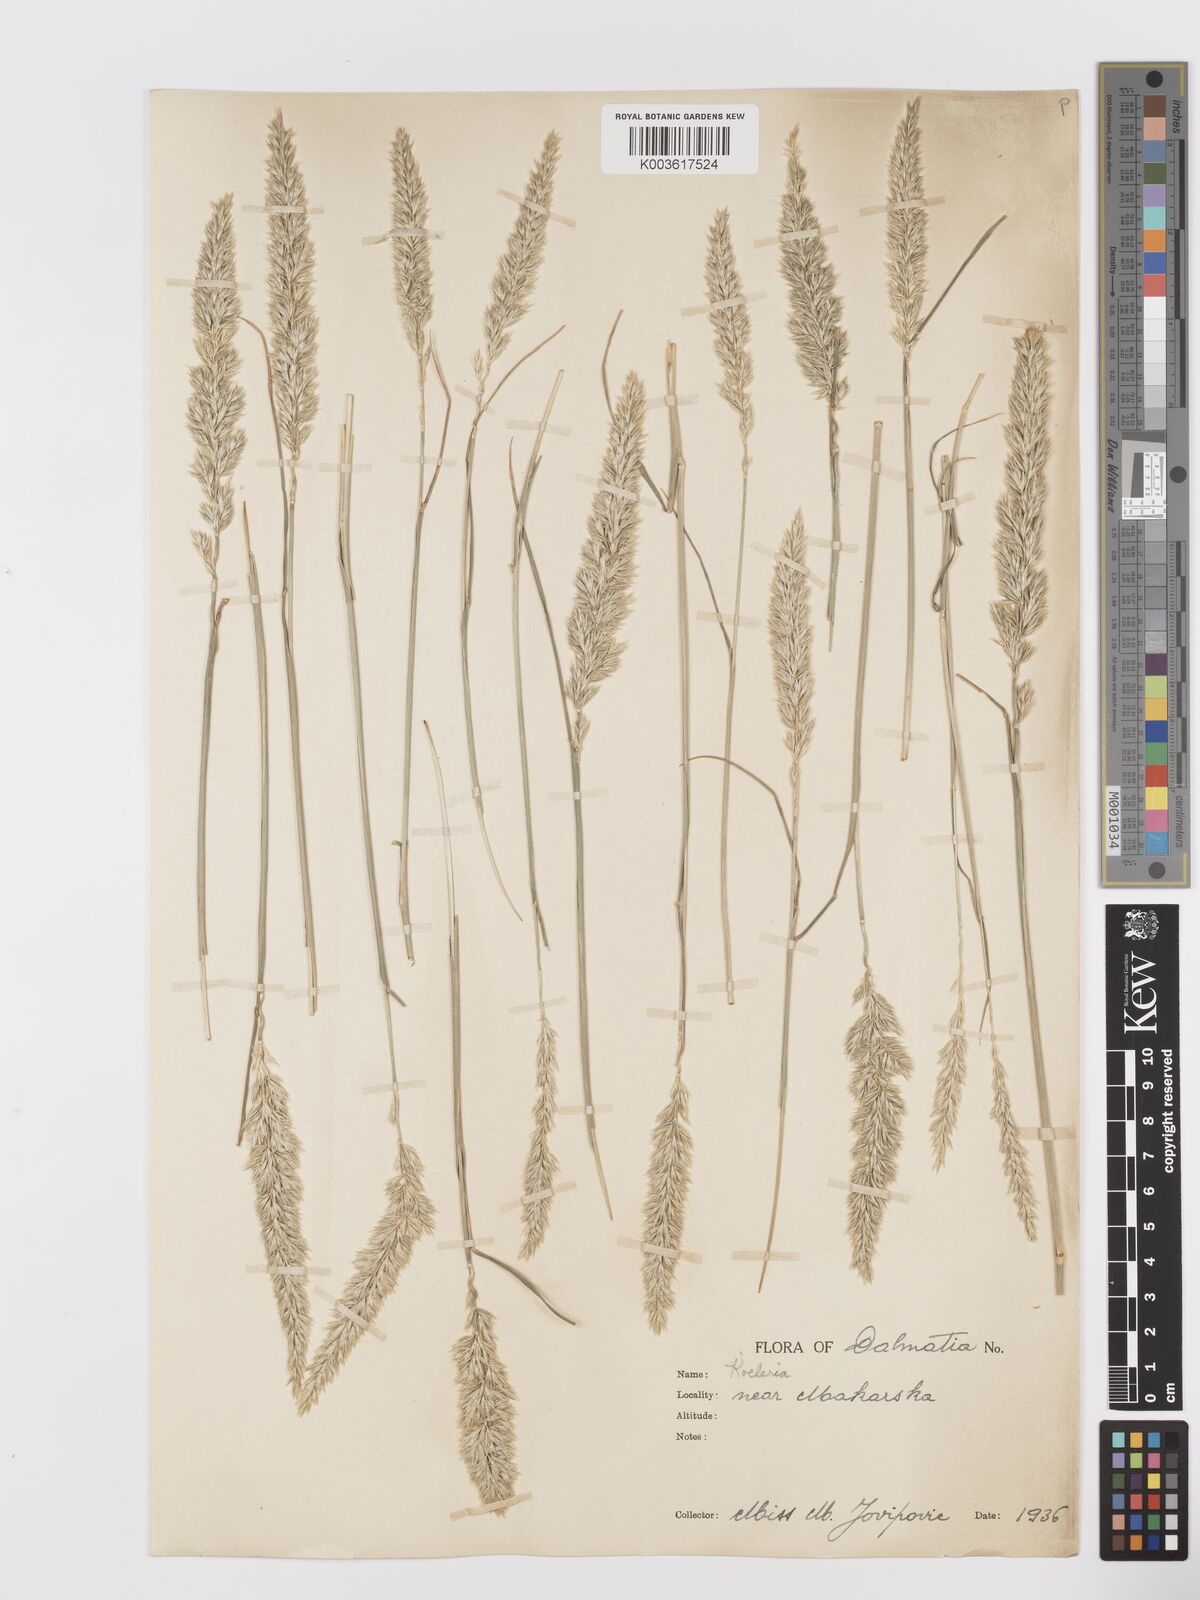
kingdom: Plantae
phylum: Tracheophyta
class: Liliopsida
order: Poales
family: Poaceae
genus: Koeleria
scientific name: Koeleria
